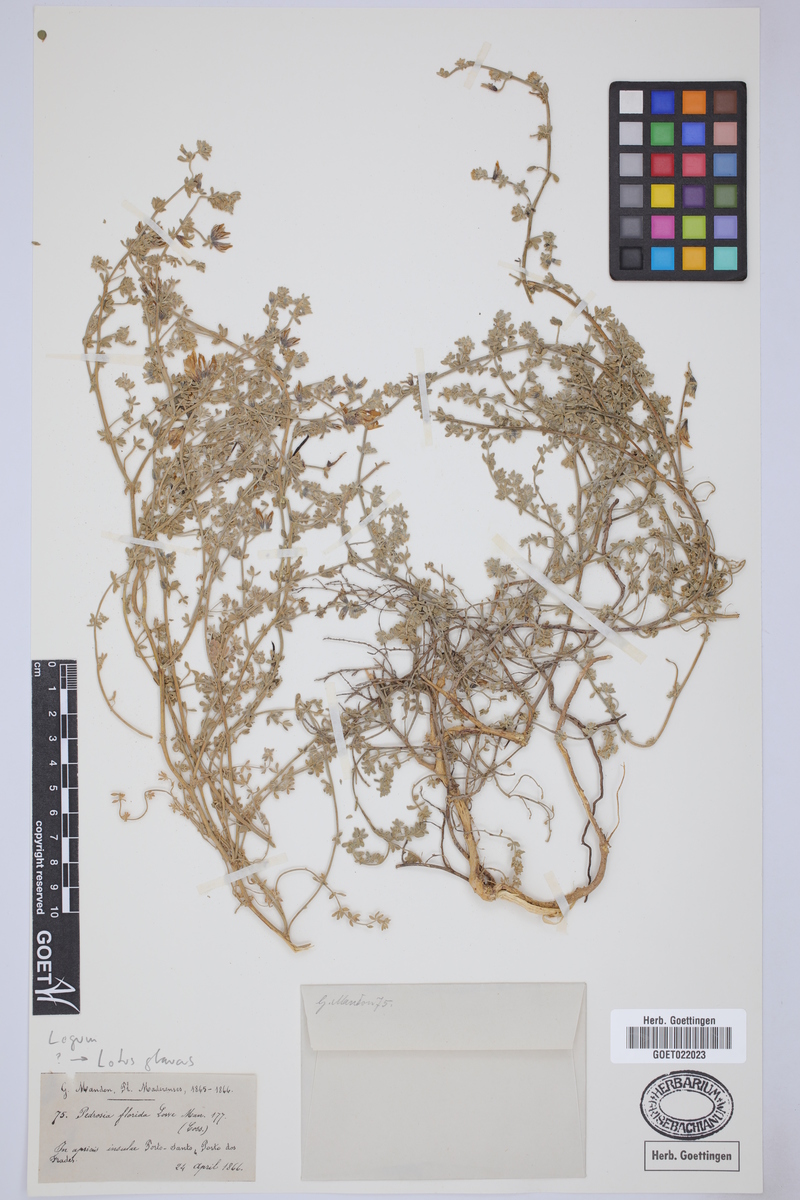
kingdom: Plantae
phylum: Tracheophyta
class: Magnoliopsida
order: Fabales
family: Fabaceae
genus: Lotus
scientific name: Lotus glaucus
